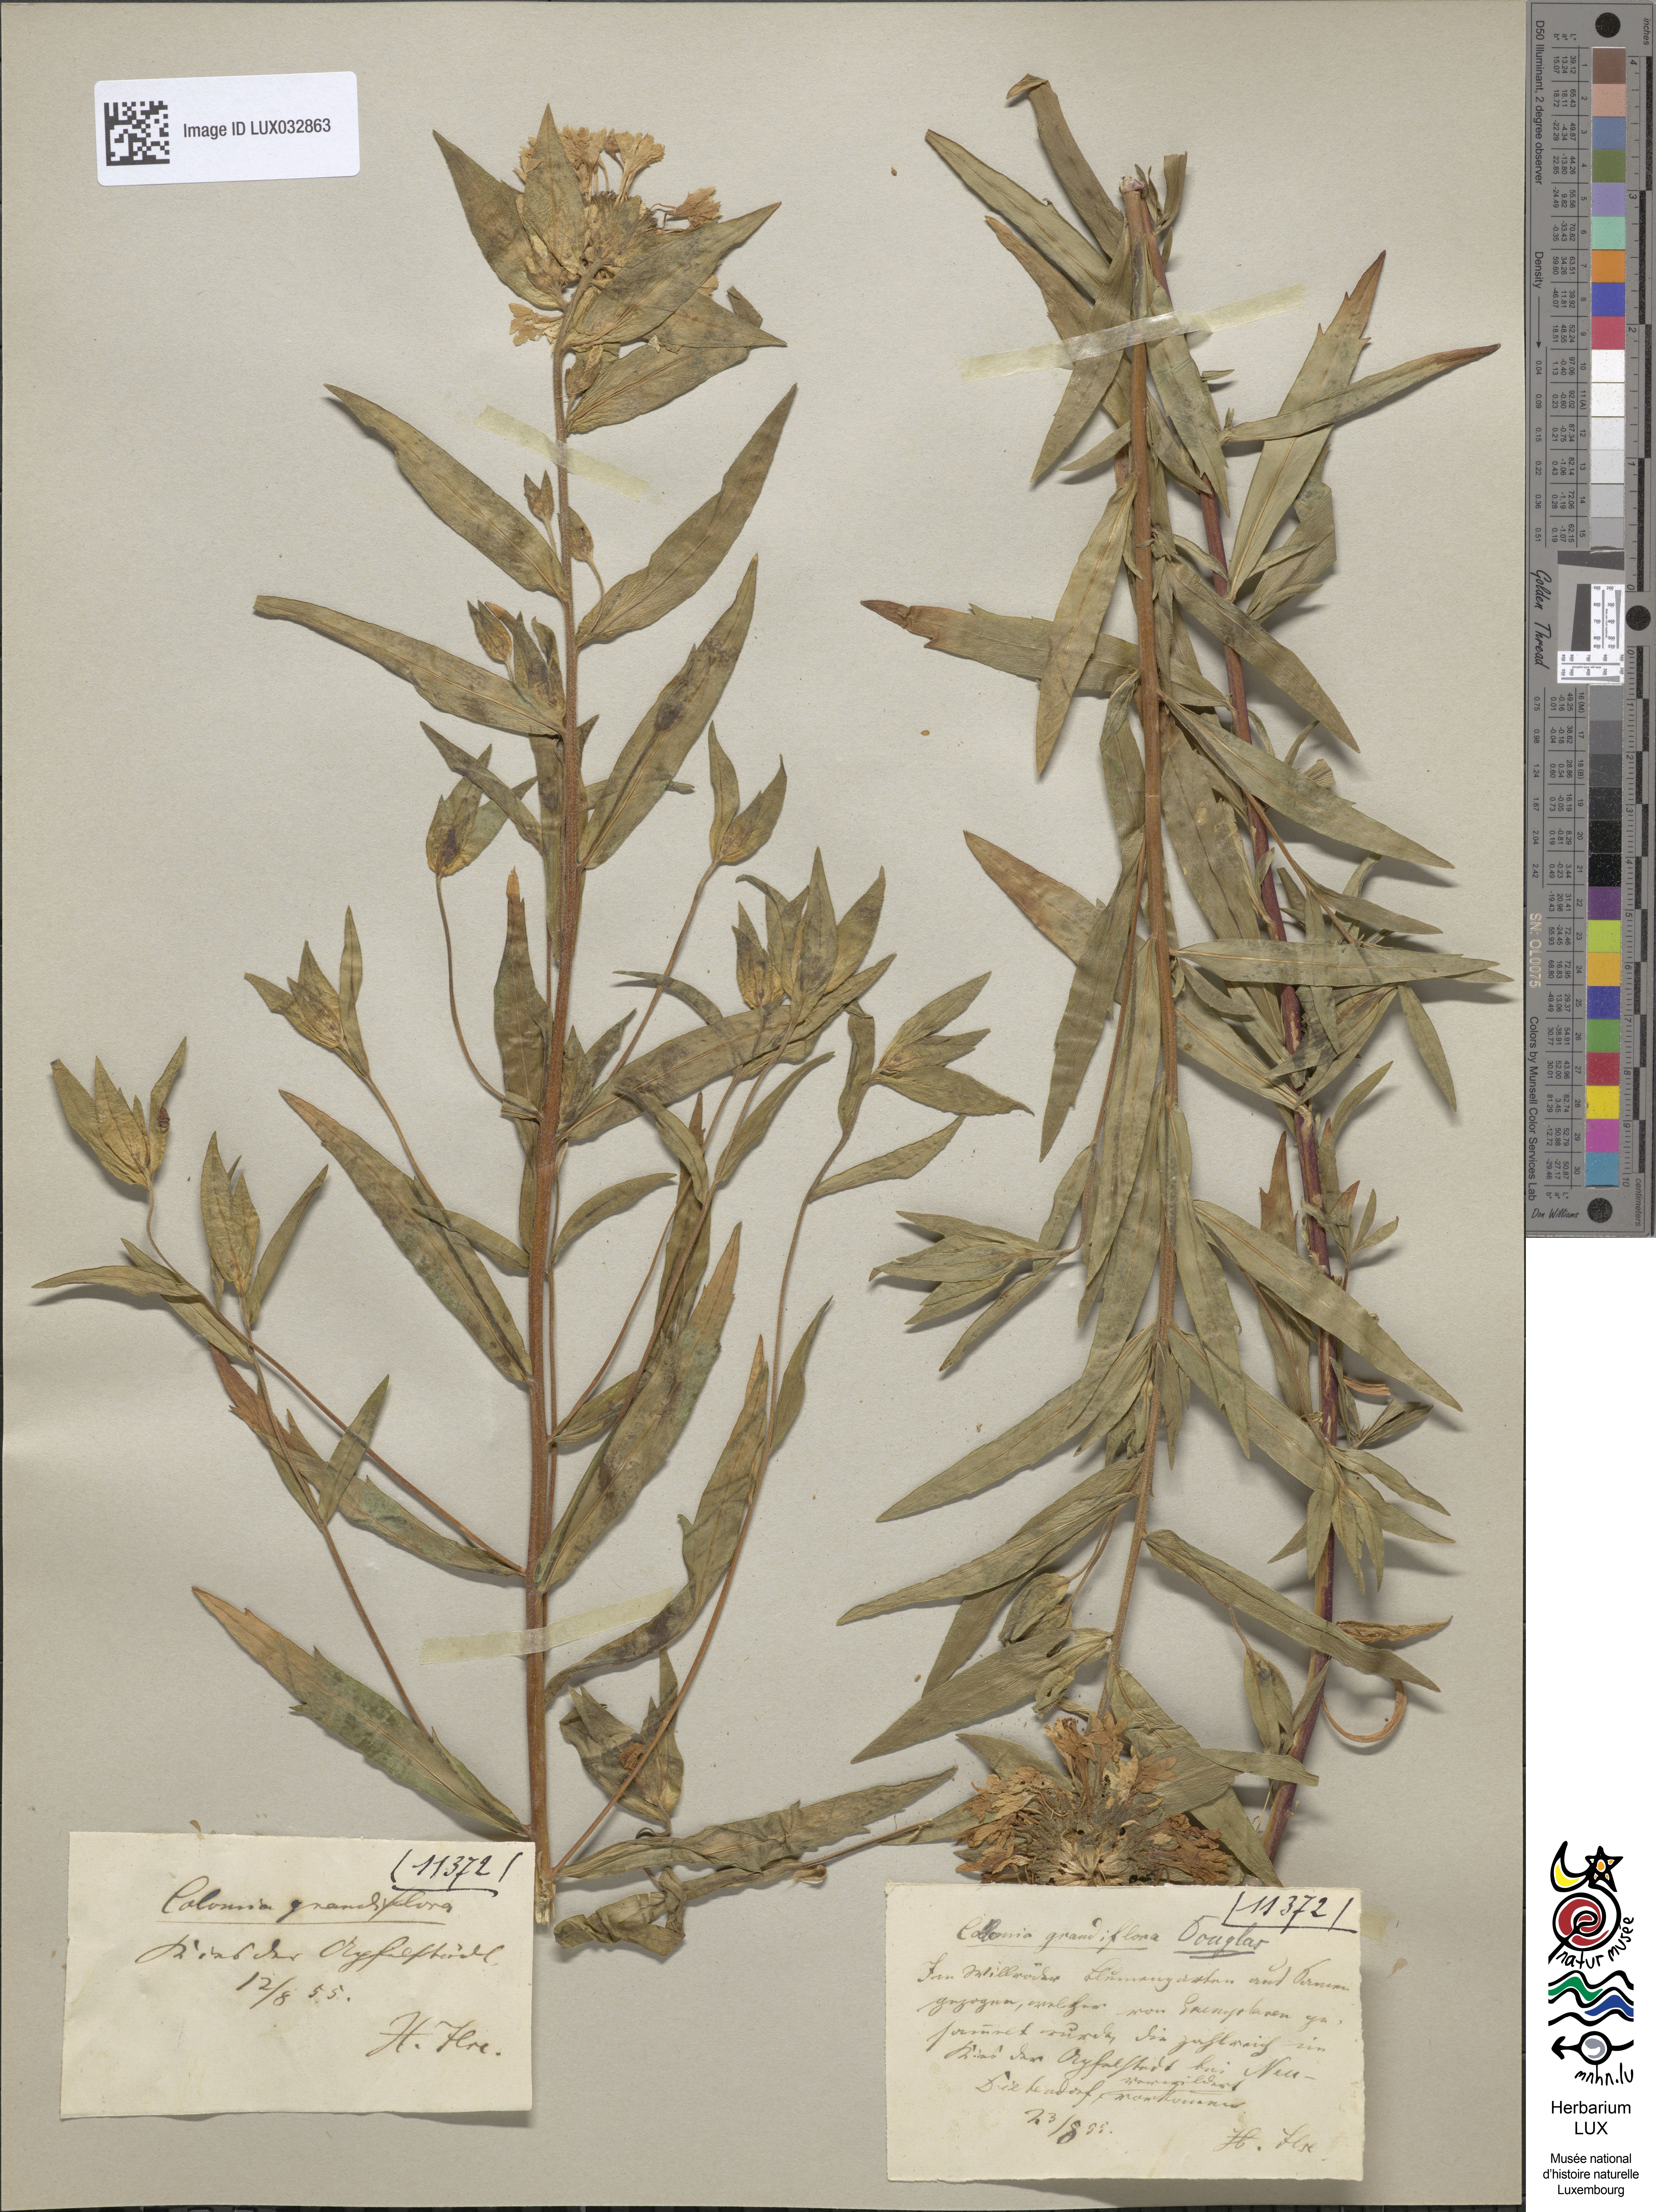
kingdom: Plantae
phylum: Tracheophyta
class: Magnoliopsida
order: Ericales
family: Polemoniaceae
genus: Collomia
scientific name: Collomia grandiflora
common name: California strawflower
